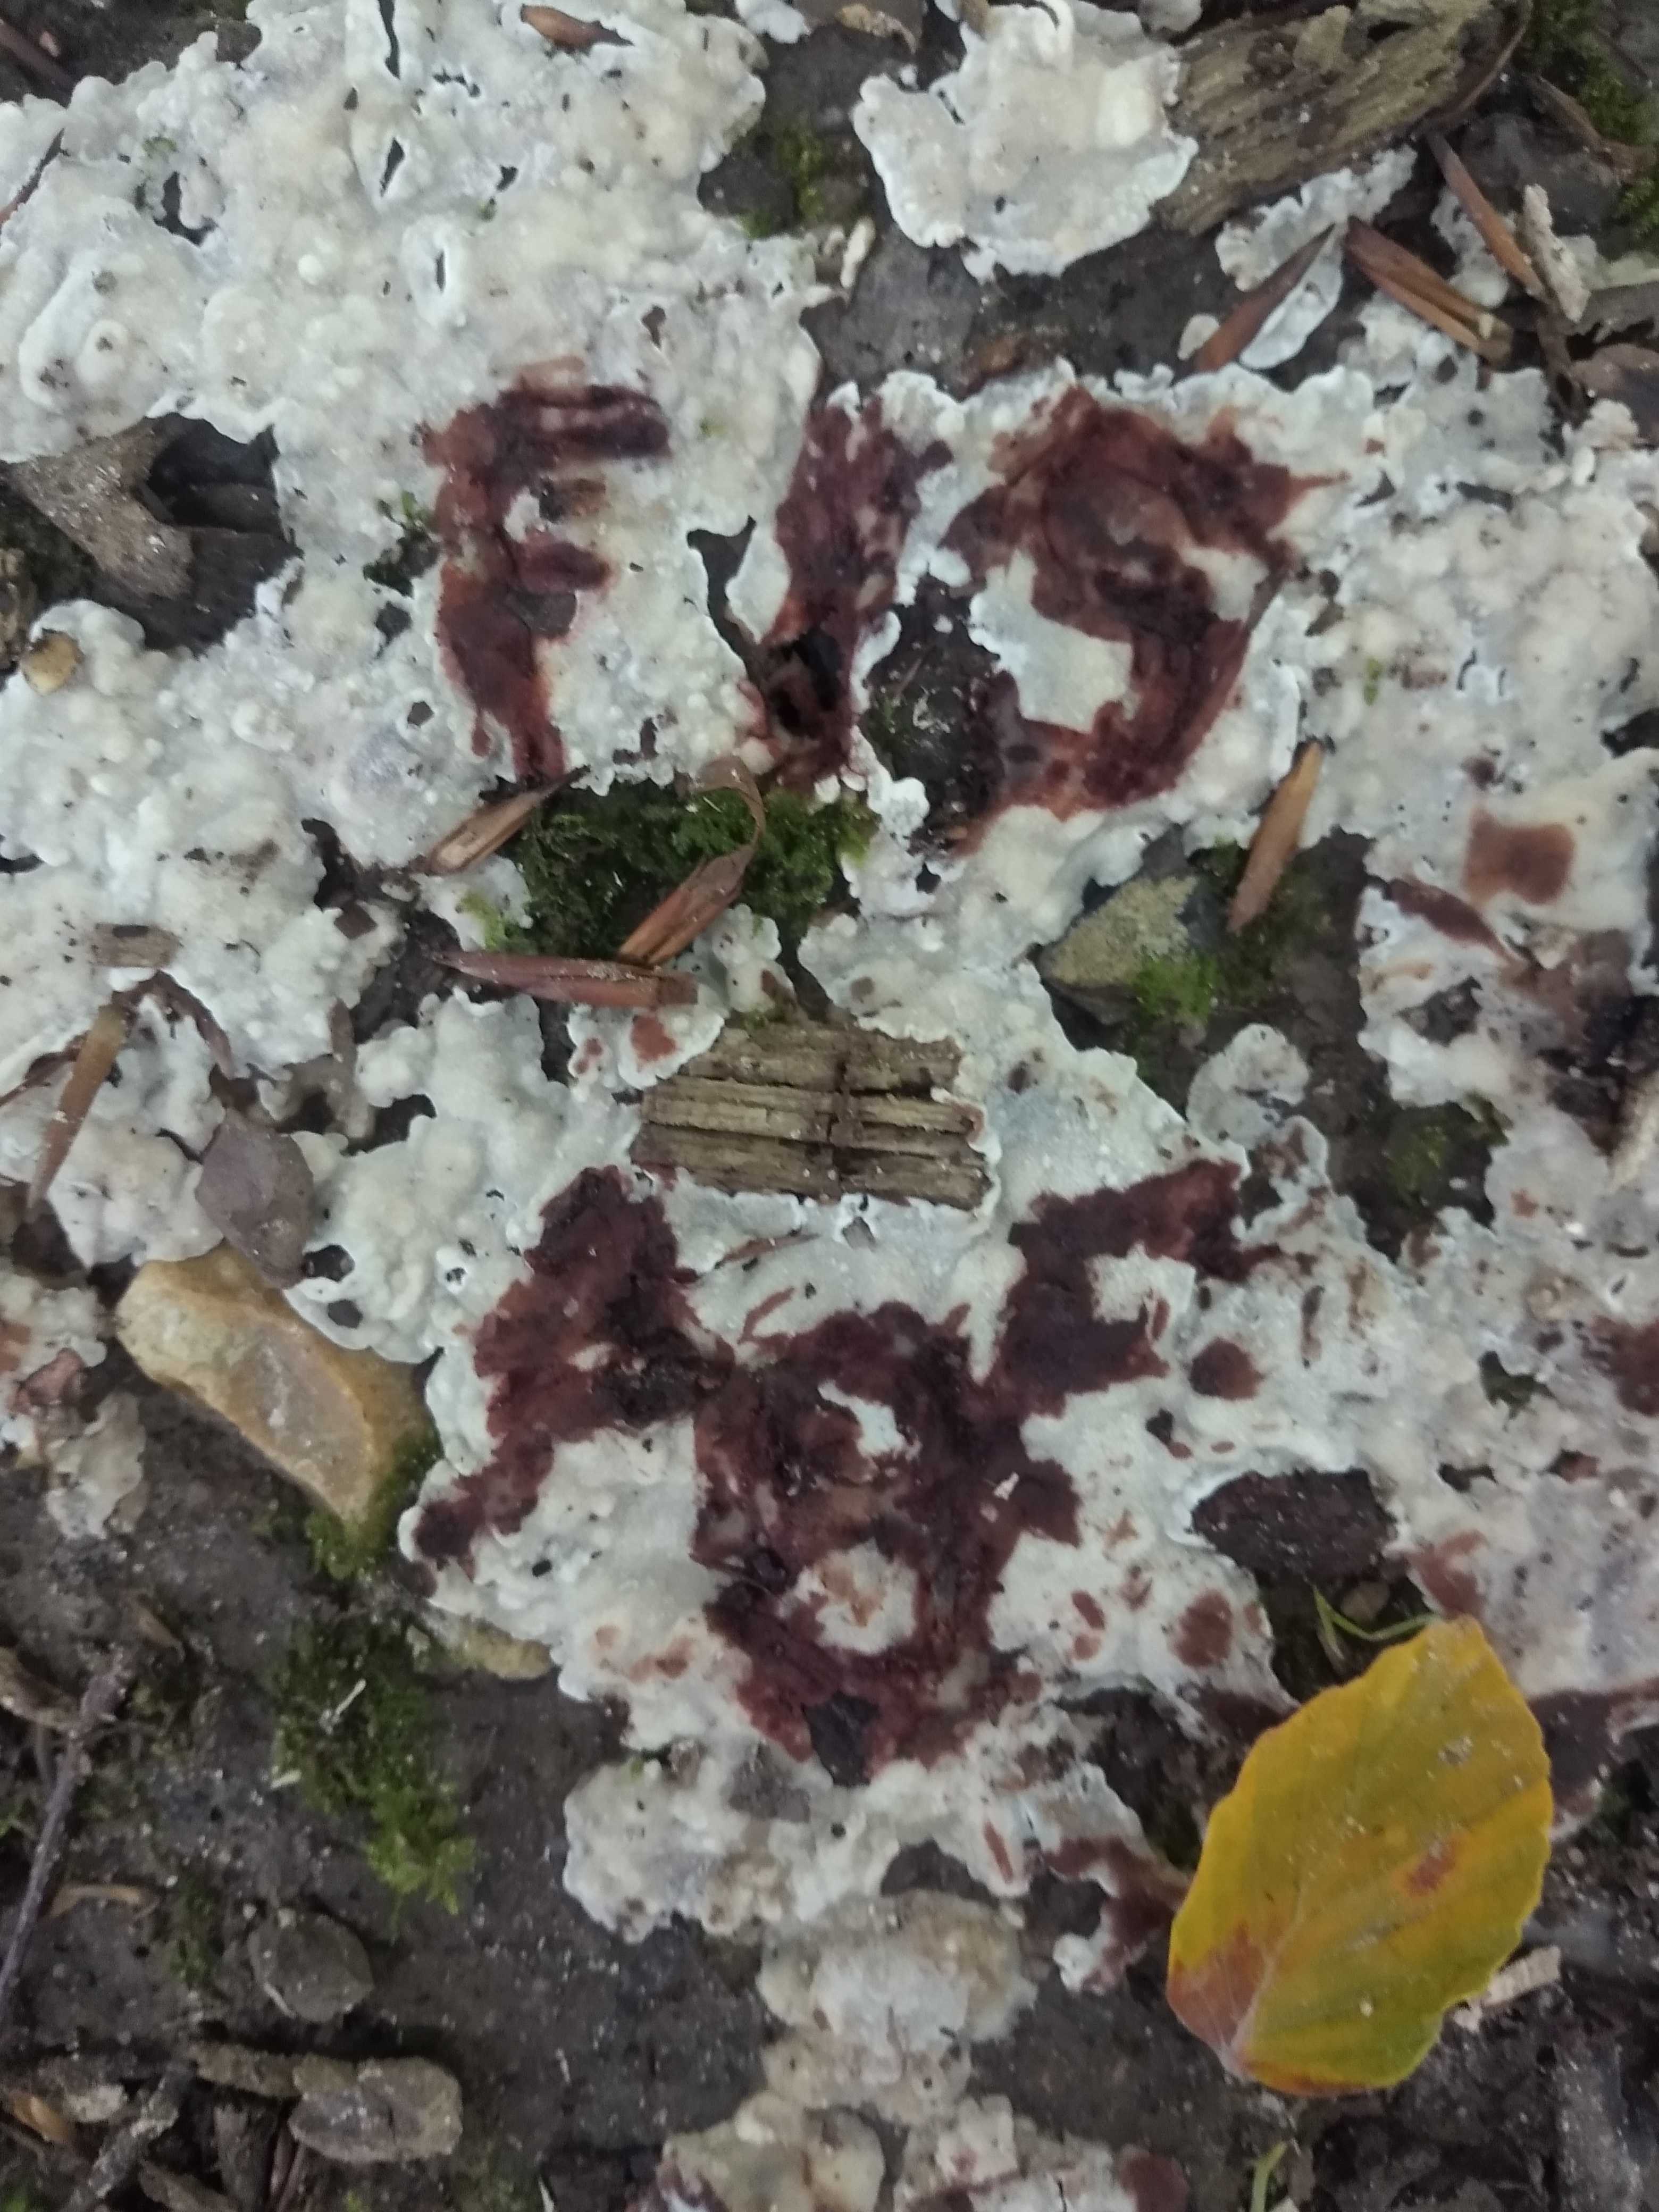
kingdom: Fungi
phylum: Basidiomycota
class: Agaricomycetes
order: Polyporales
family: Meripilaceae
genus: Rigidoporus
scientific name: Rigidoporus sanguinolentus
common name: blod-skorpeporesvamp
